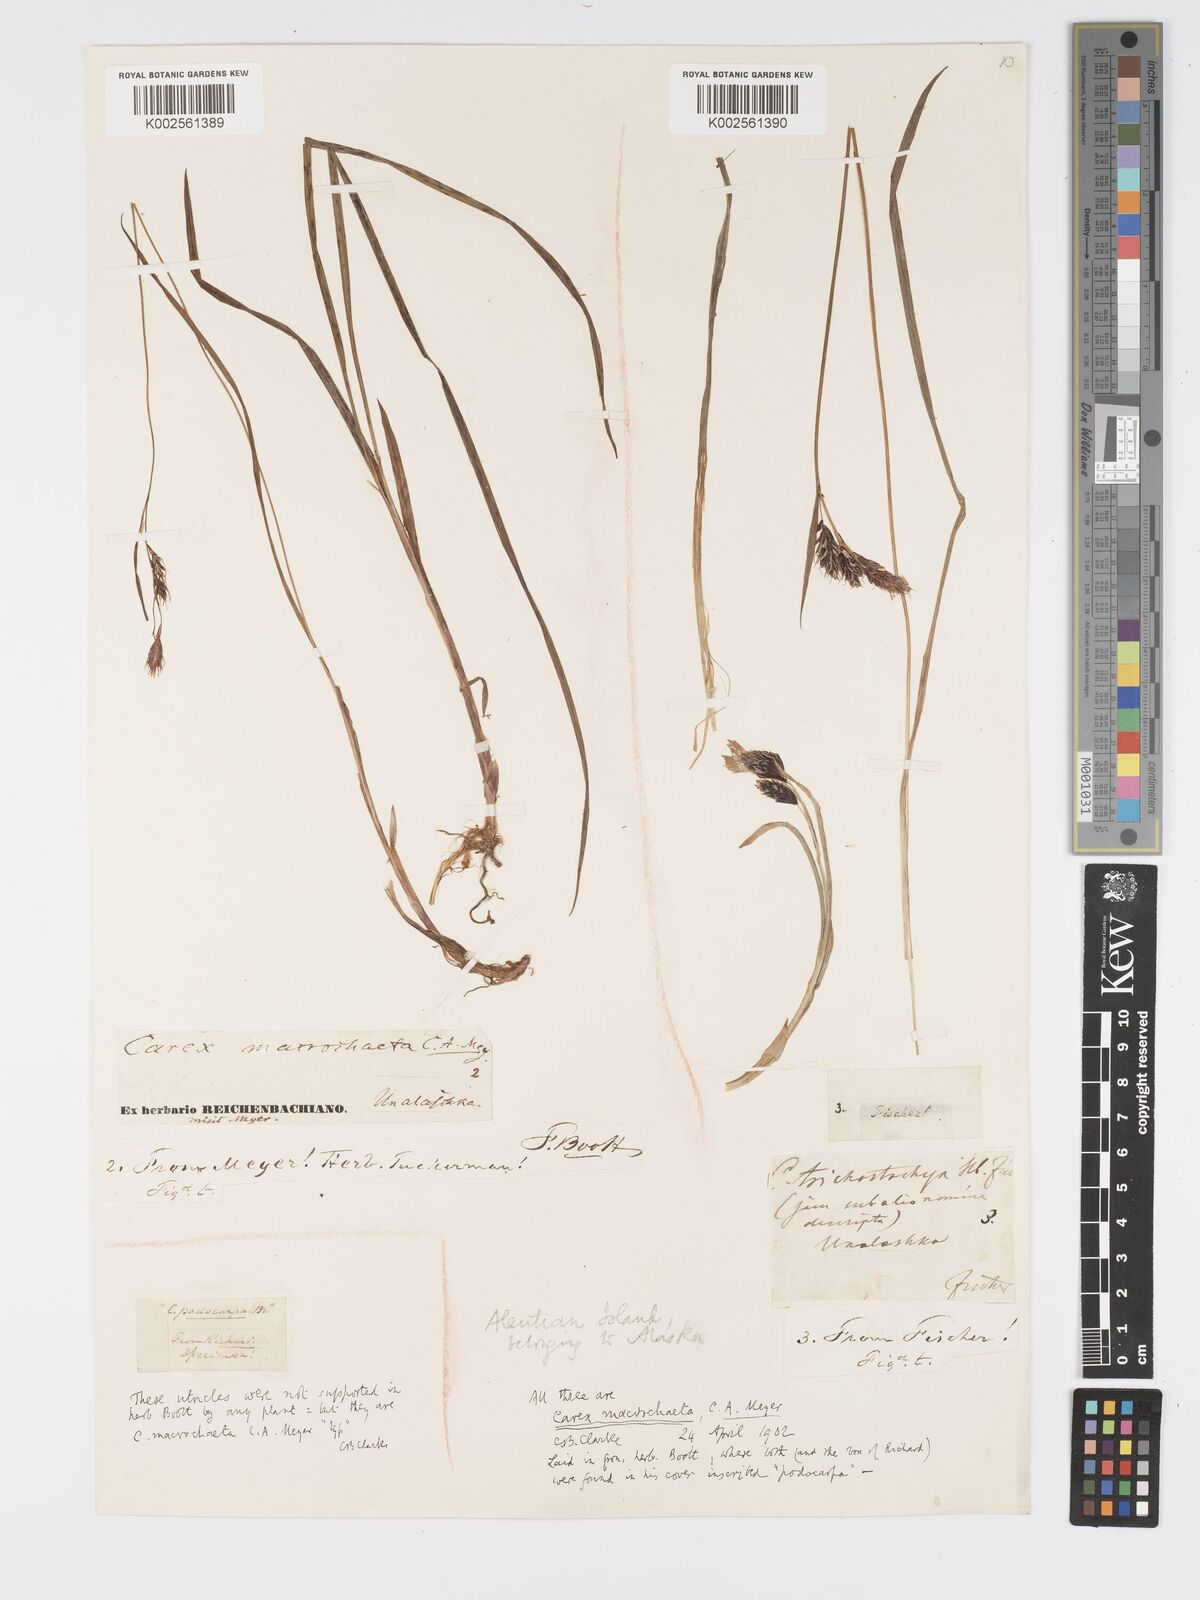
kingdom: Plantae
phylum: Tracheophyta
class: Liliopsida
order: Poales
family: Cyperaceae
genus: Carex
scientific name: Carex macrochaeta
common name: Alaska large awn sedge
